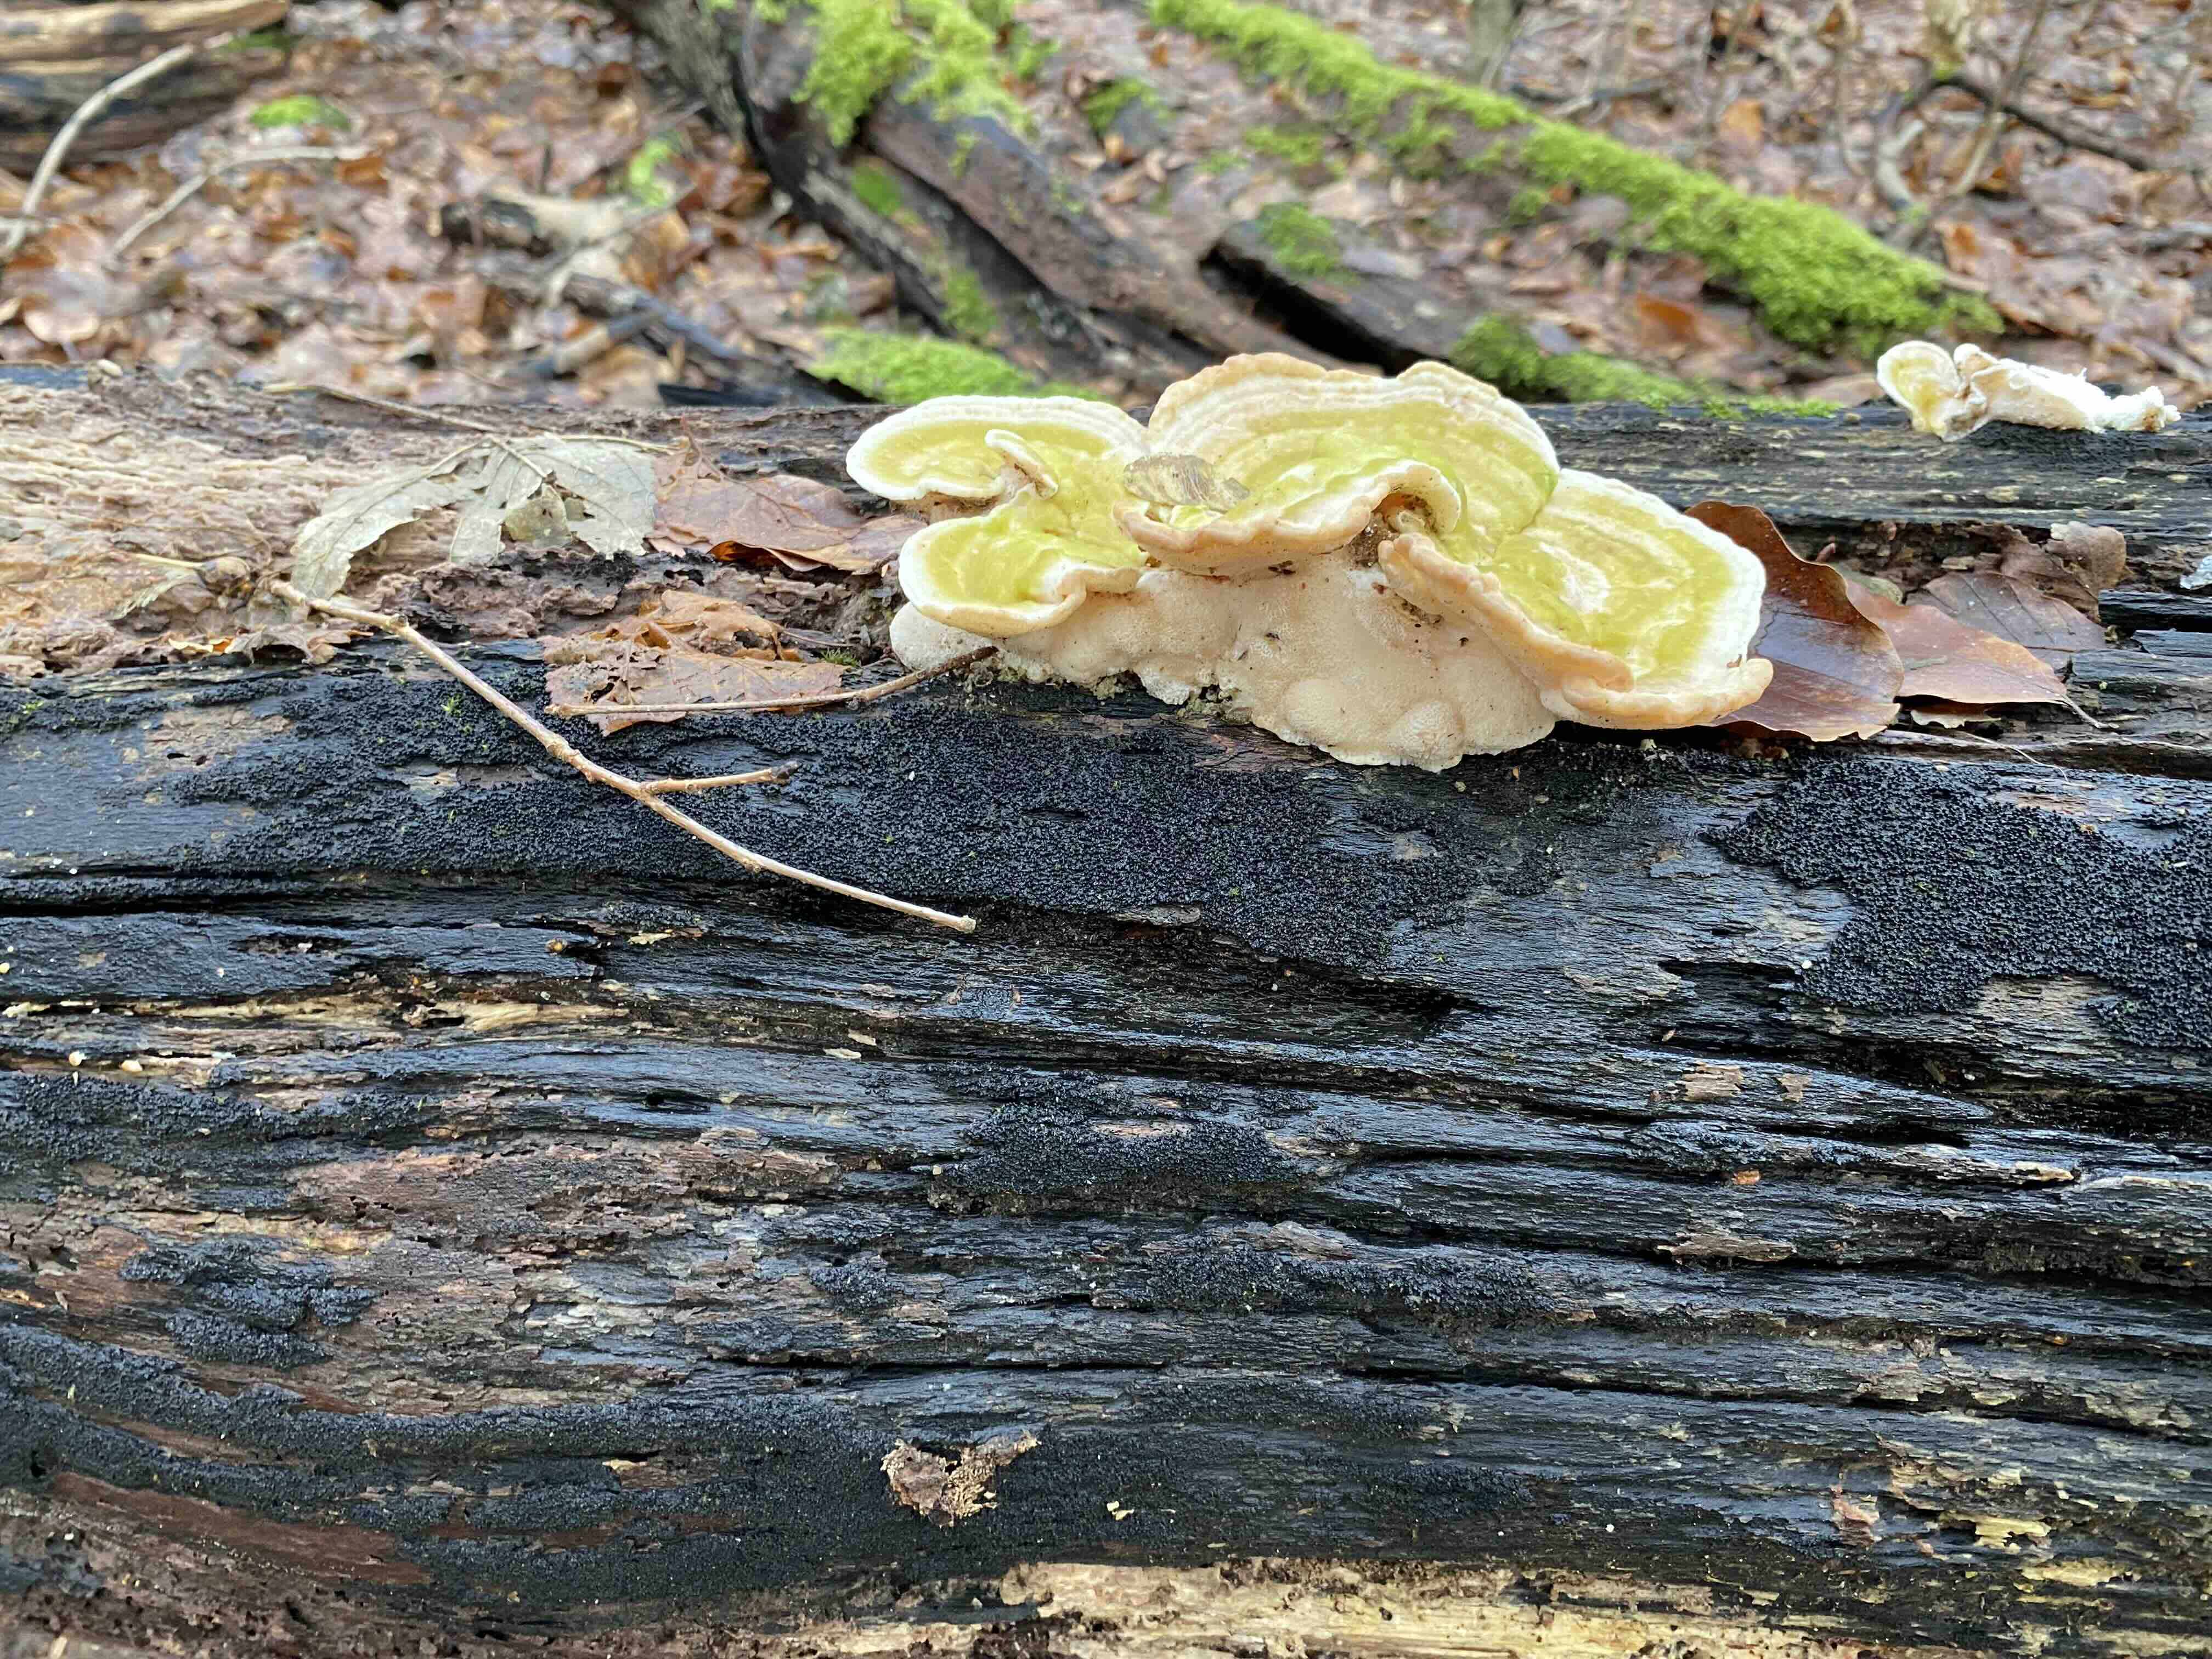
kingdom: Fungi
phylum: Basidiomycota
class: Agaricomycetes
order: Polyporales
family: Polyporaceae
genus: Trametes
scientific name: Trametes gibbosa
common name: puklet læderporesvamp
